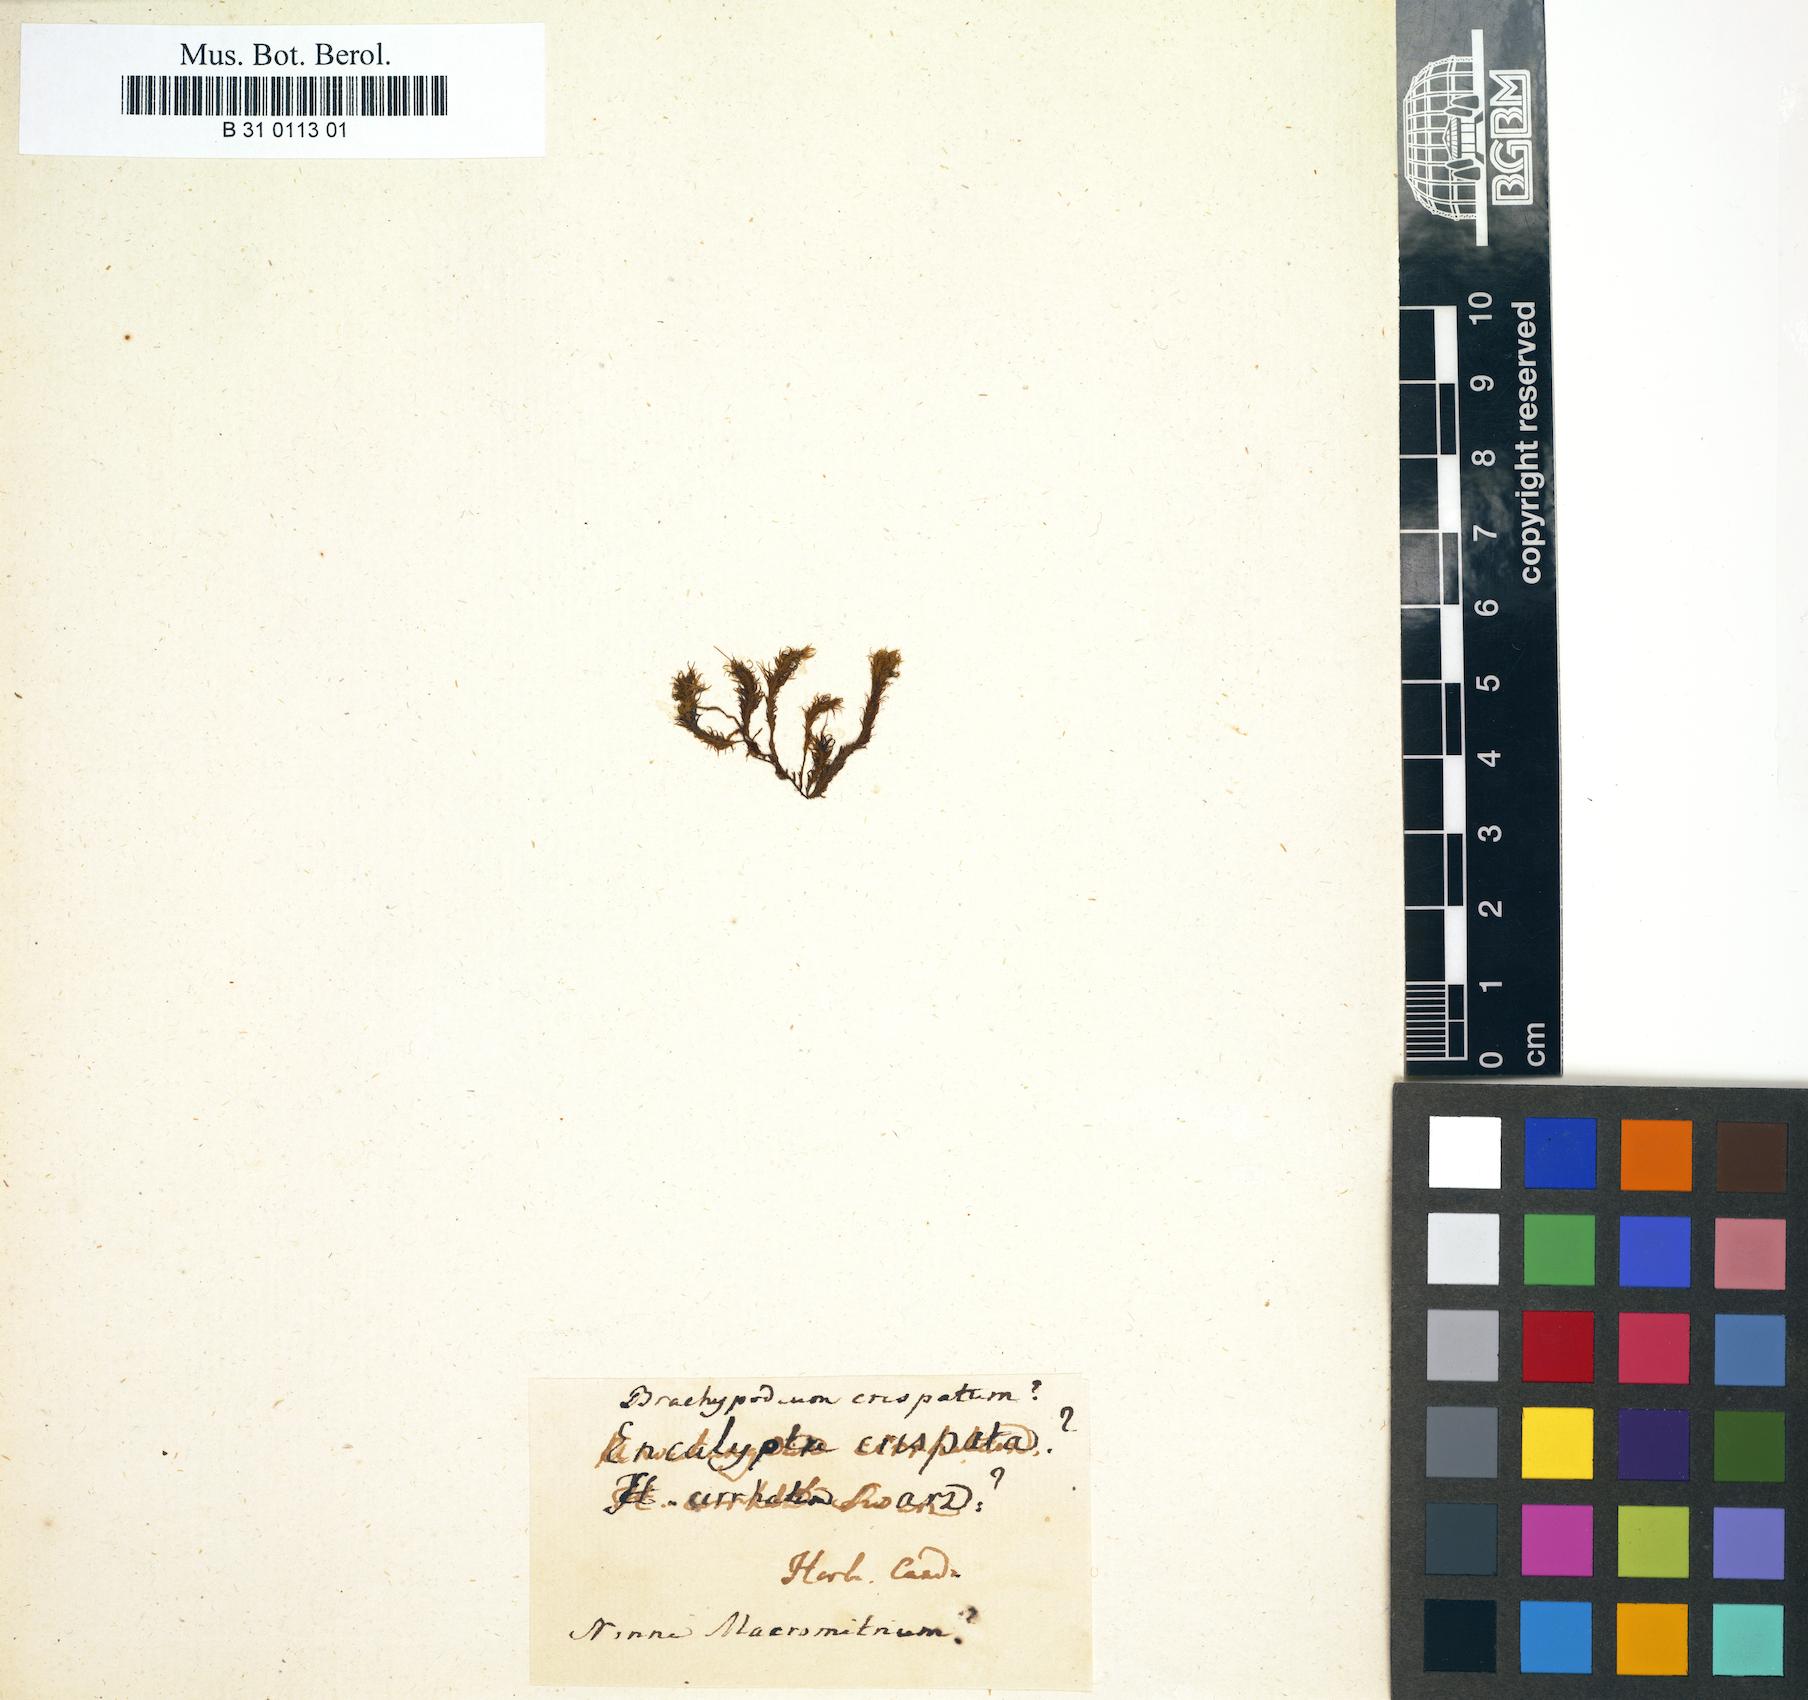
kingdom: Plantae
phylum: Bryophyta
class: Bryopsida
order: Grimmiales
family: Ptychomitriaceae
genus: Ptychomitrium
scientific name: Ptychomitrium crispatum
